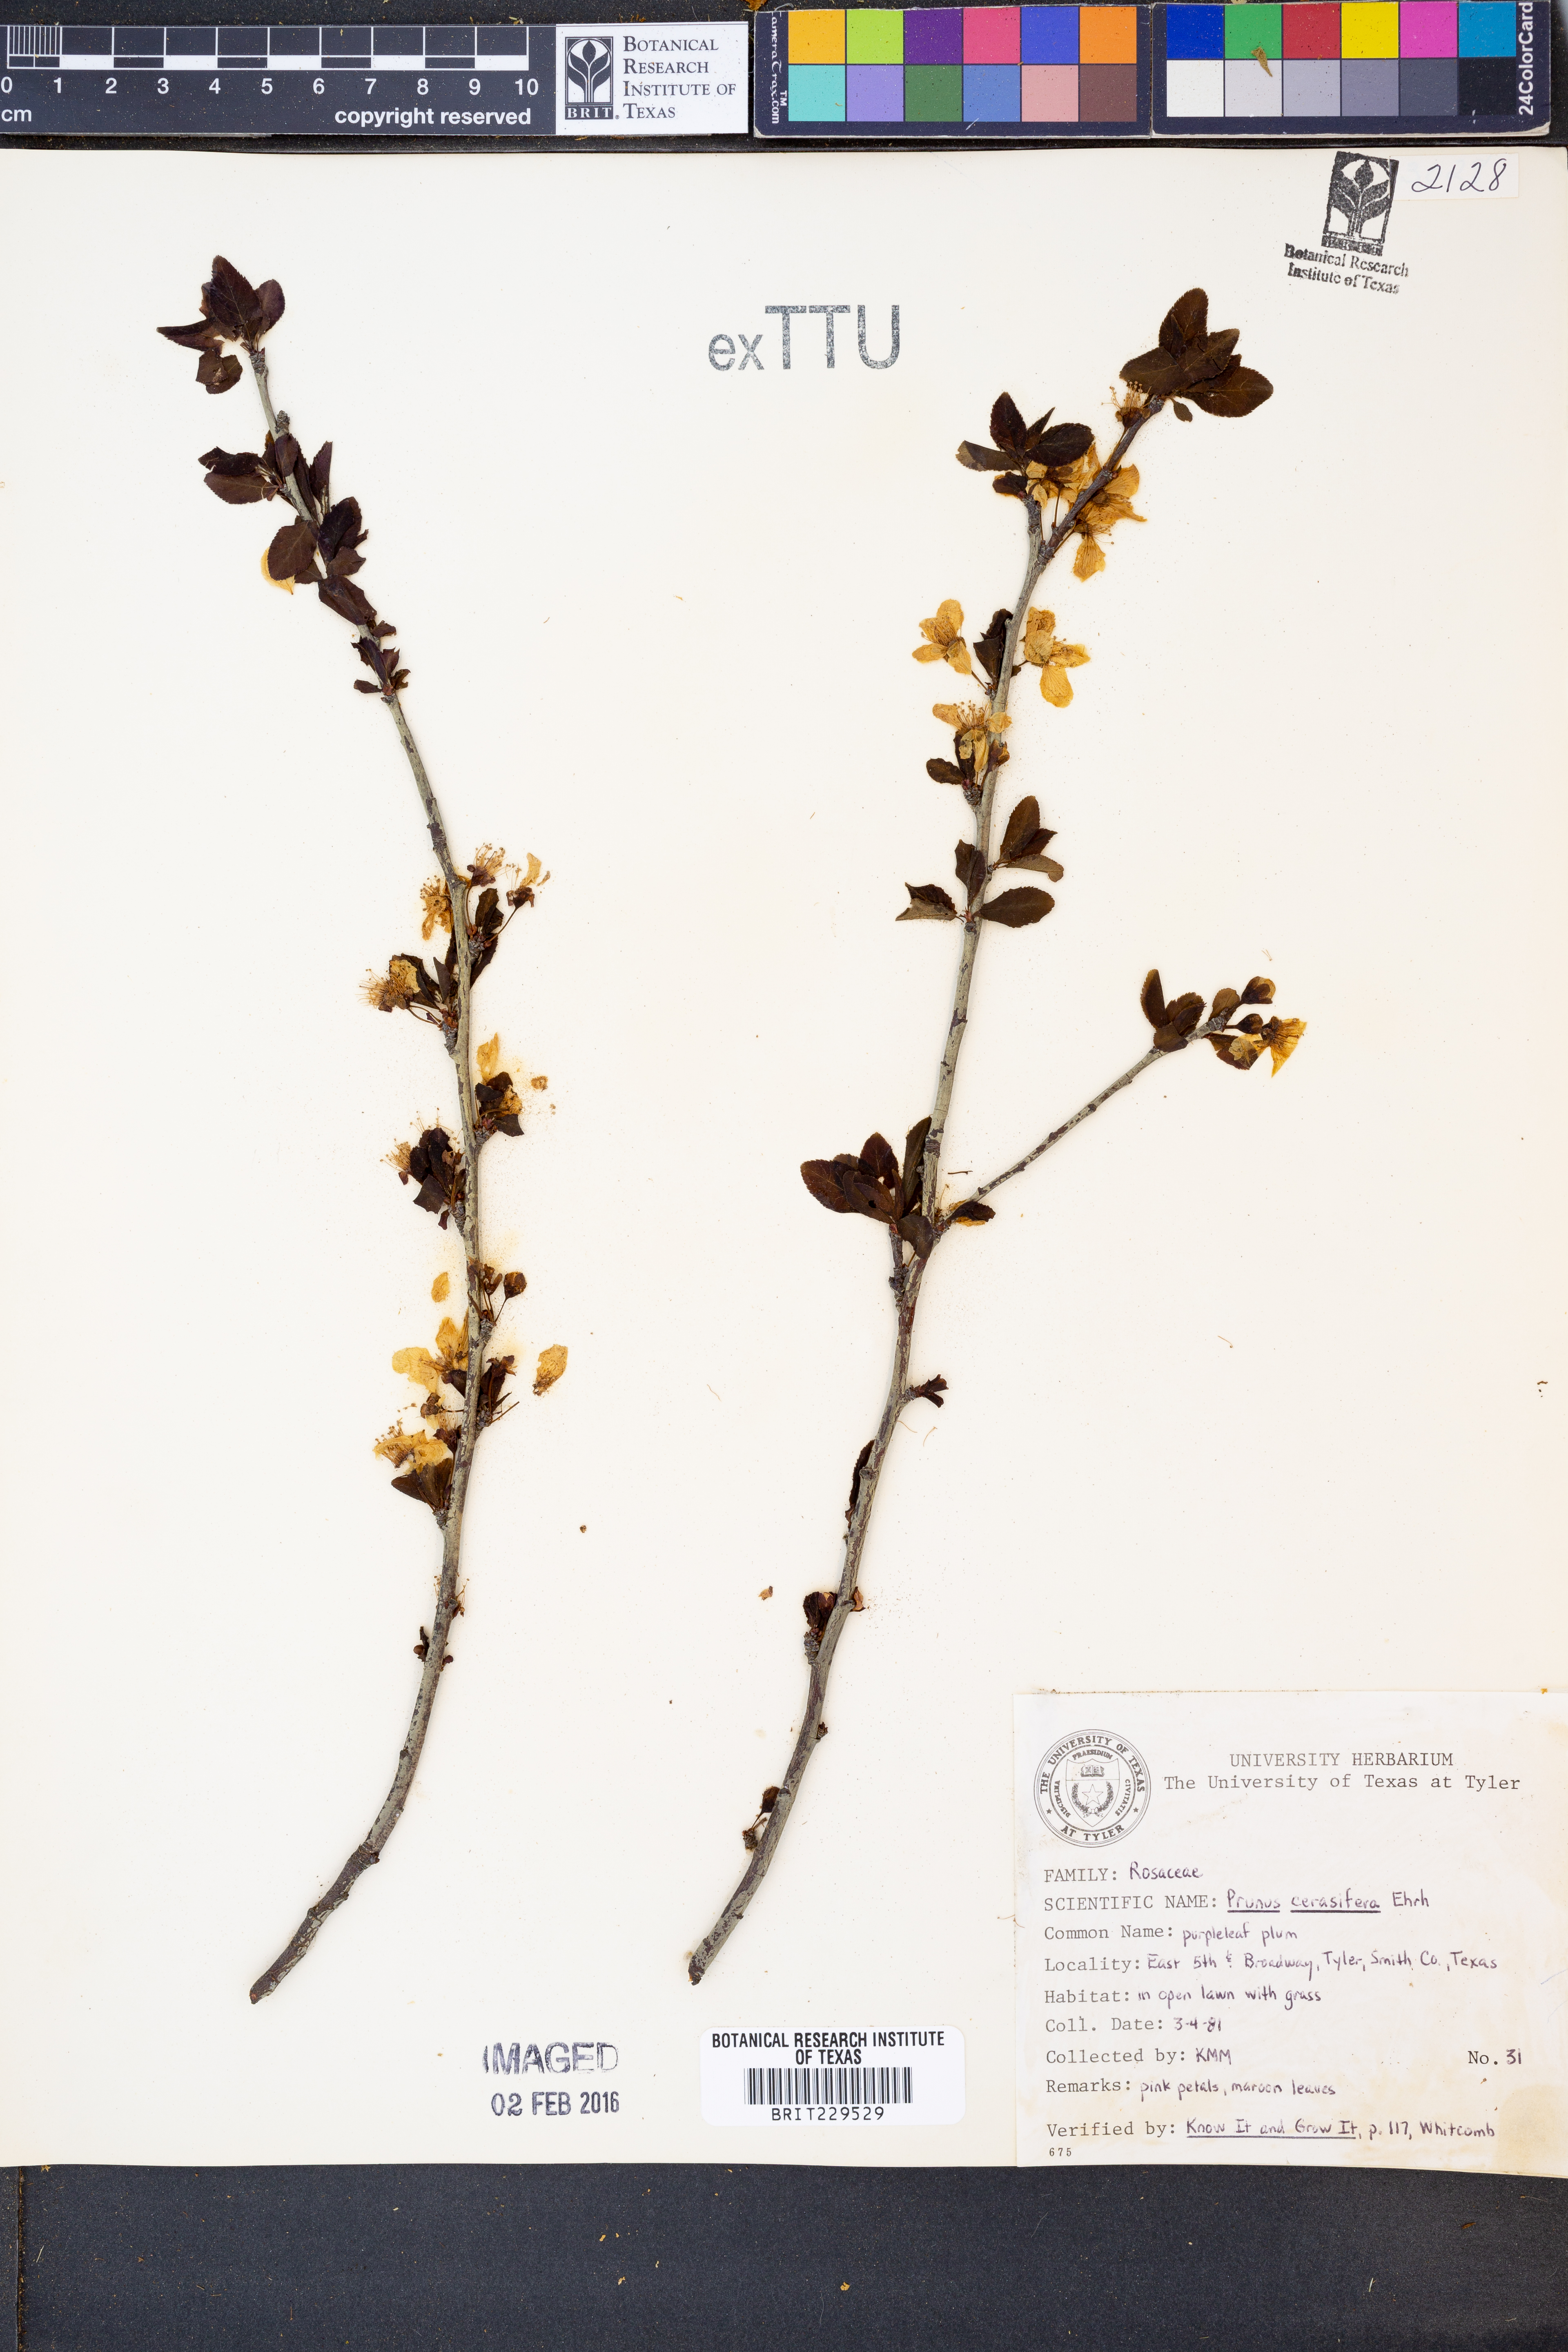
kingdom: Plantae
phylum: Tracheophyta
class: Magnoliopsida
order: Rosales
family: Rosaceae
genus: Prunus
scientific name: Prunus cerasifera
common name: Cherry plum
